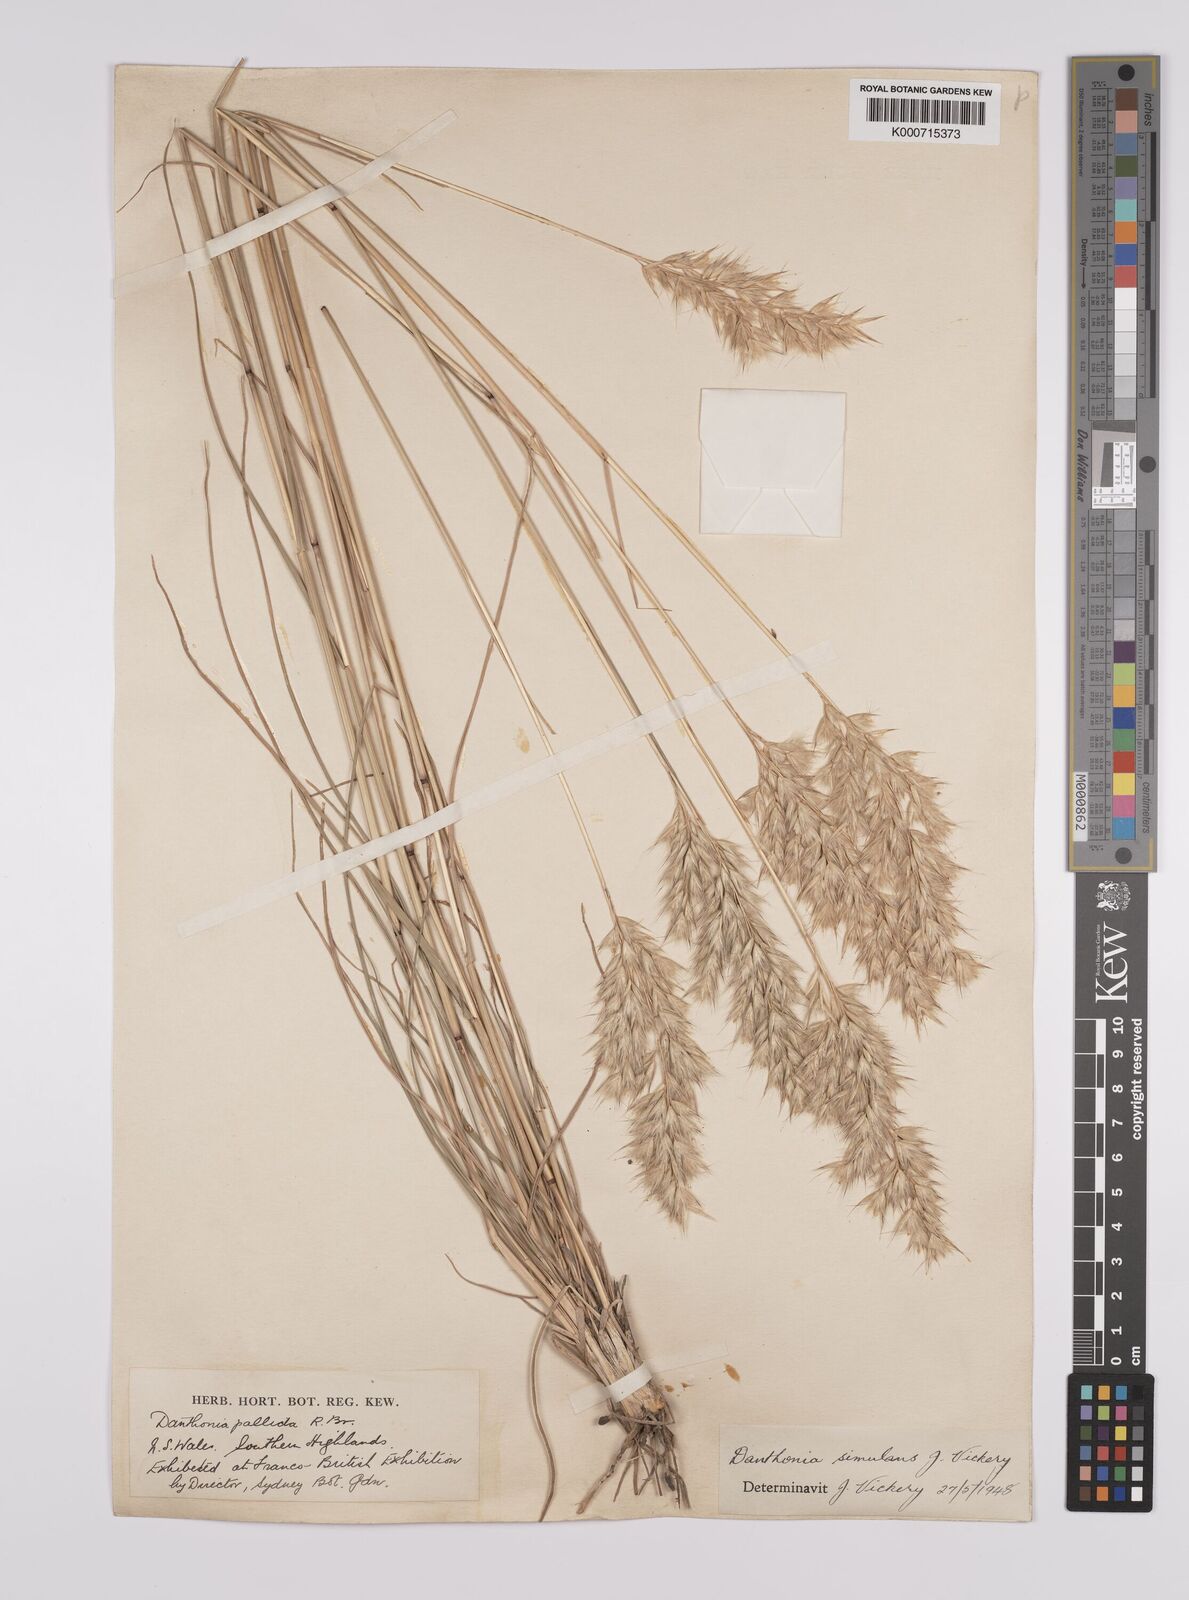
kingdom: Plantae
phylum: Tracheophyta
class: Liliopsida
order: Poales
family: Poaceae
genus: Rytidosperma
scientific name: Rytidosperma bipartitum
